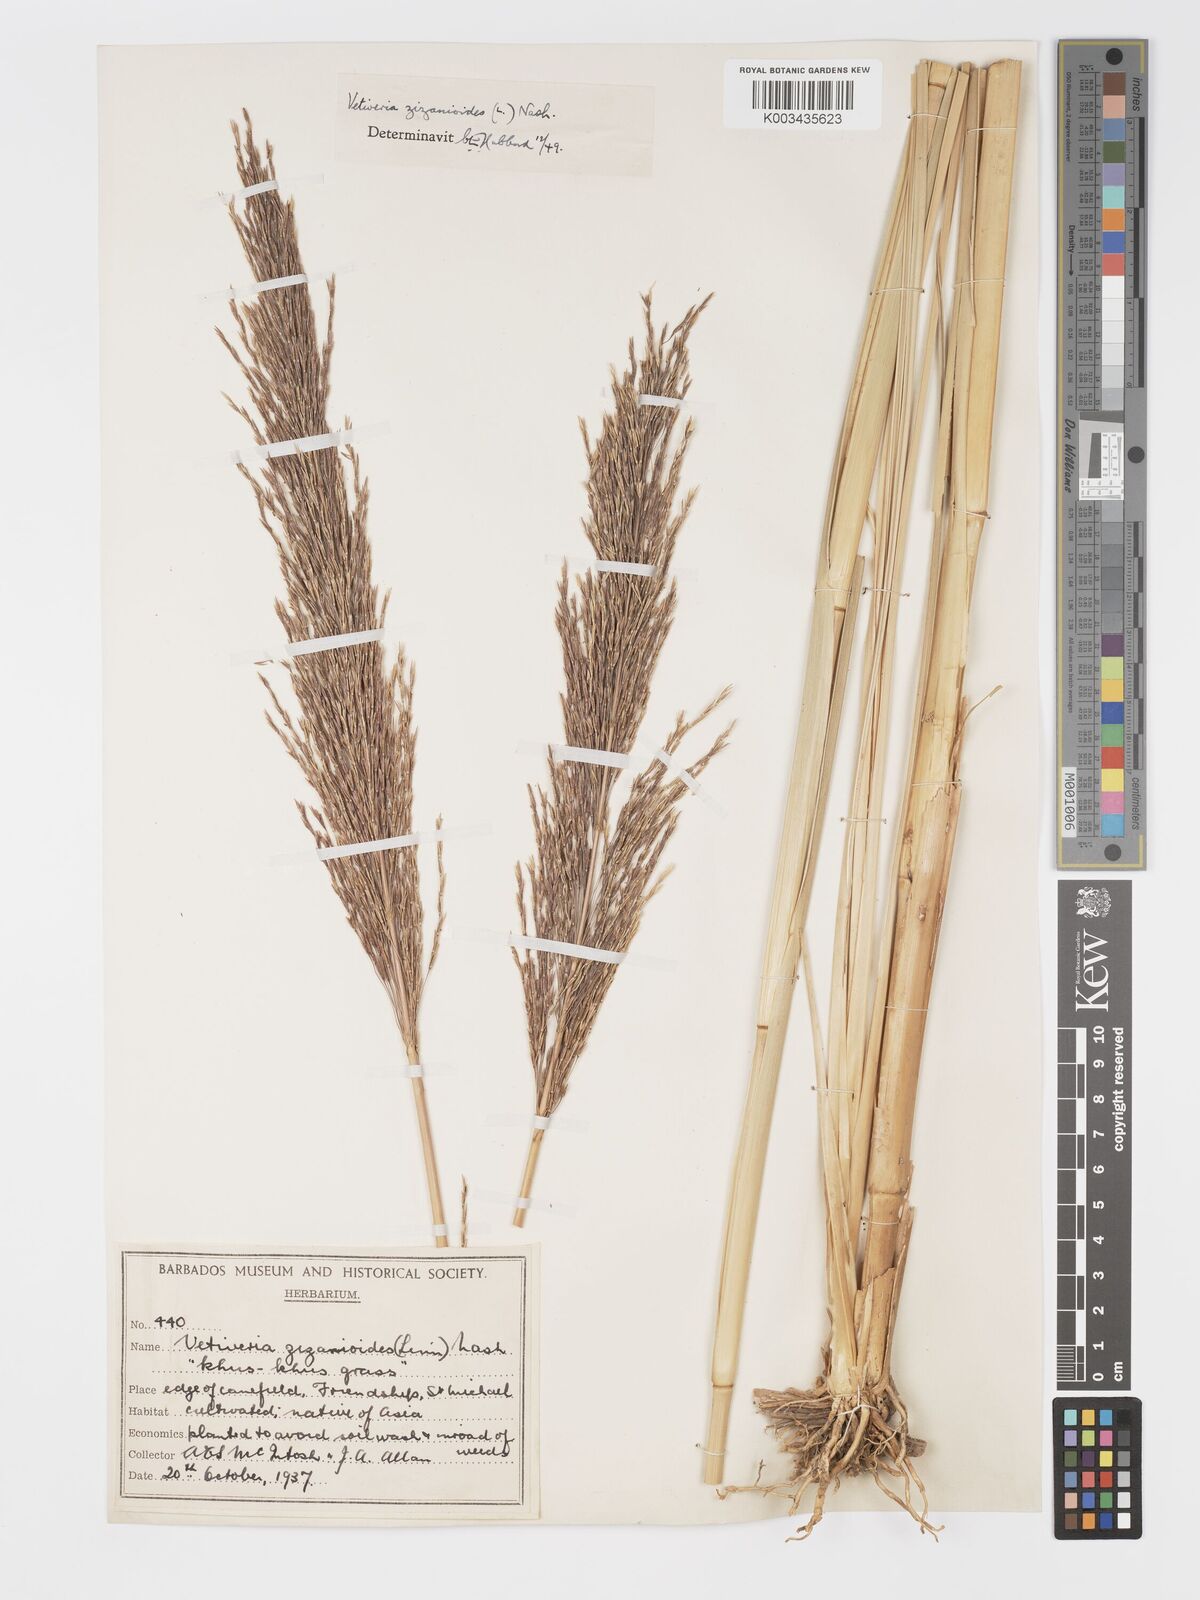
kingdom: Plantae
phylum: Tracheophyta
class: Liliopsida
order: Poales
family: Poaceae
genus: Chrysopogon
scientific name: Chrysopogon zizanioides
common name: False beardgrass
